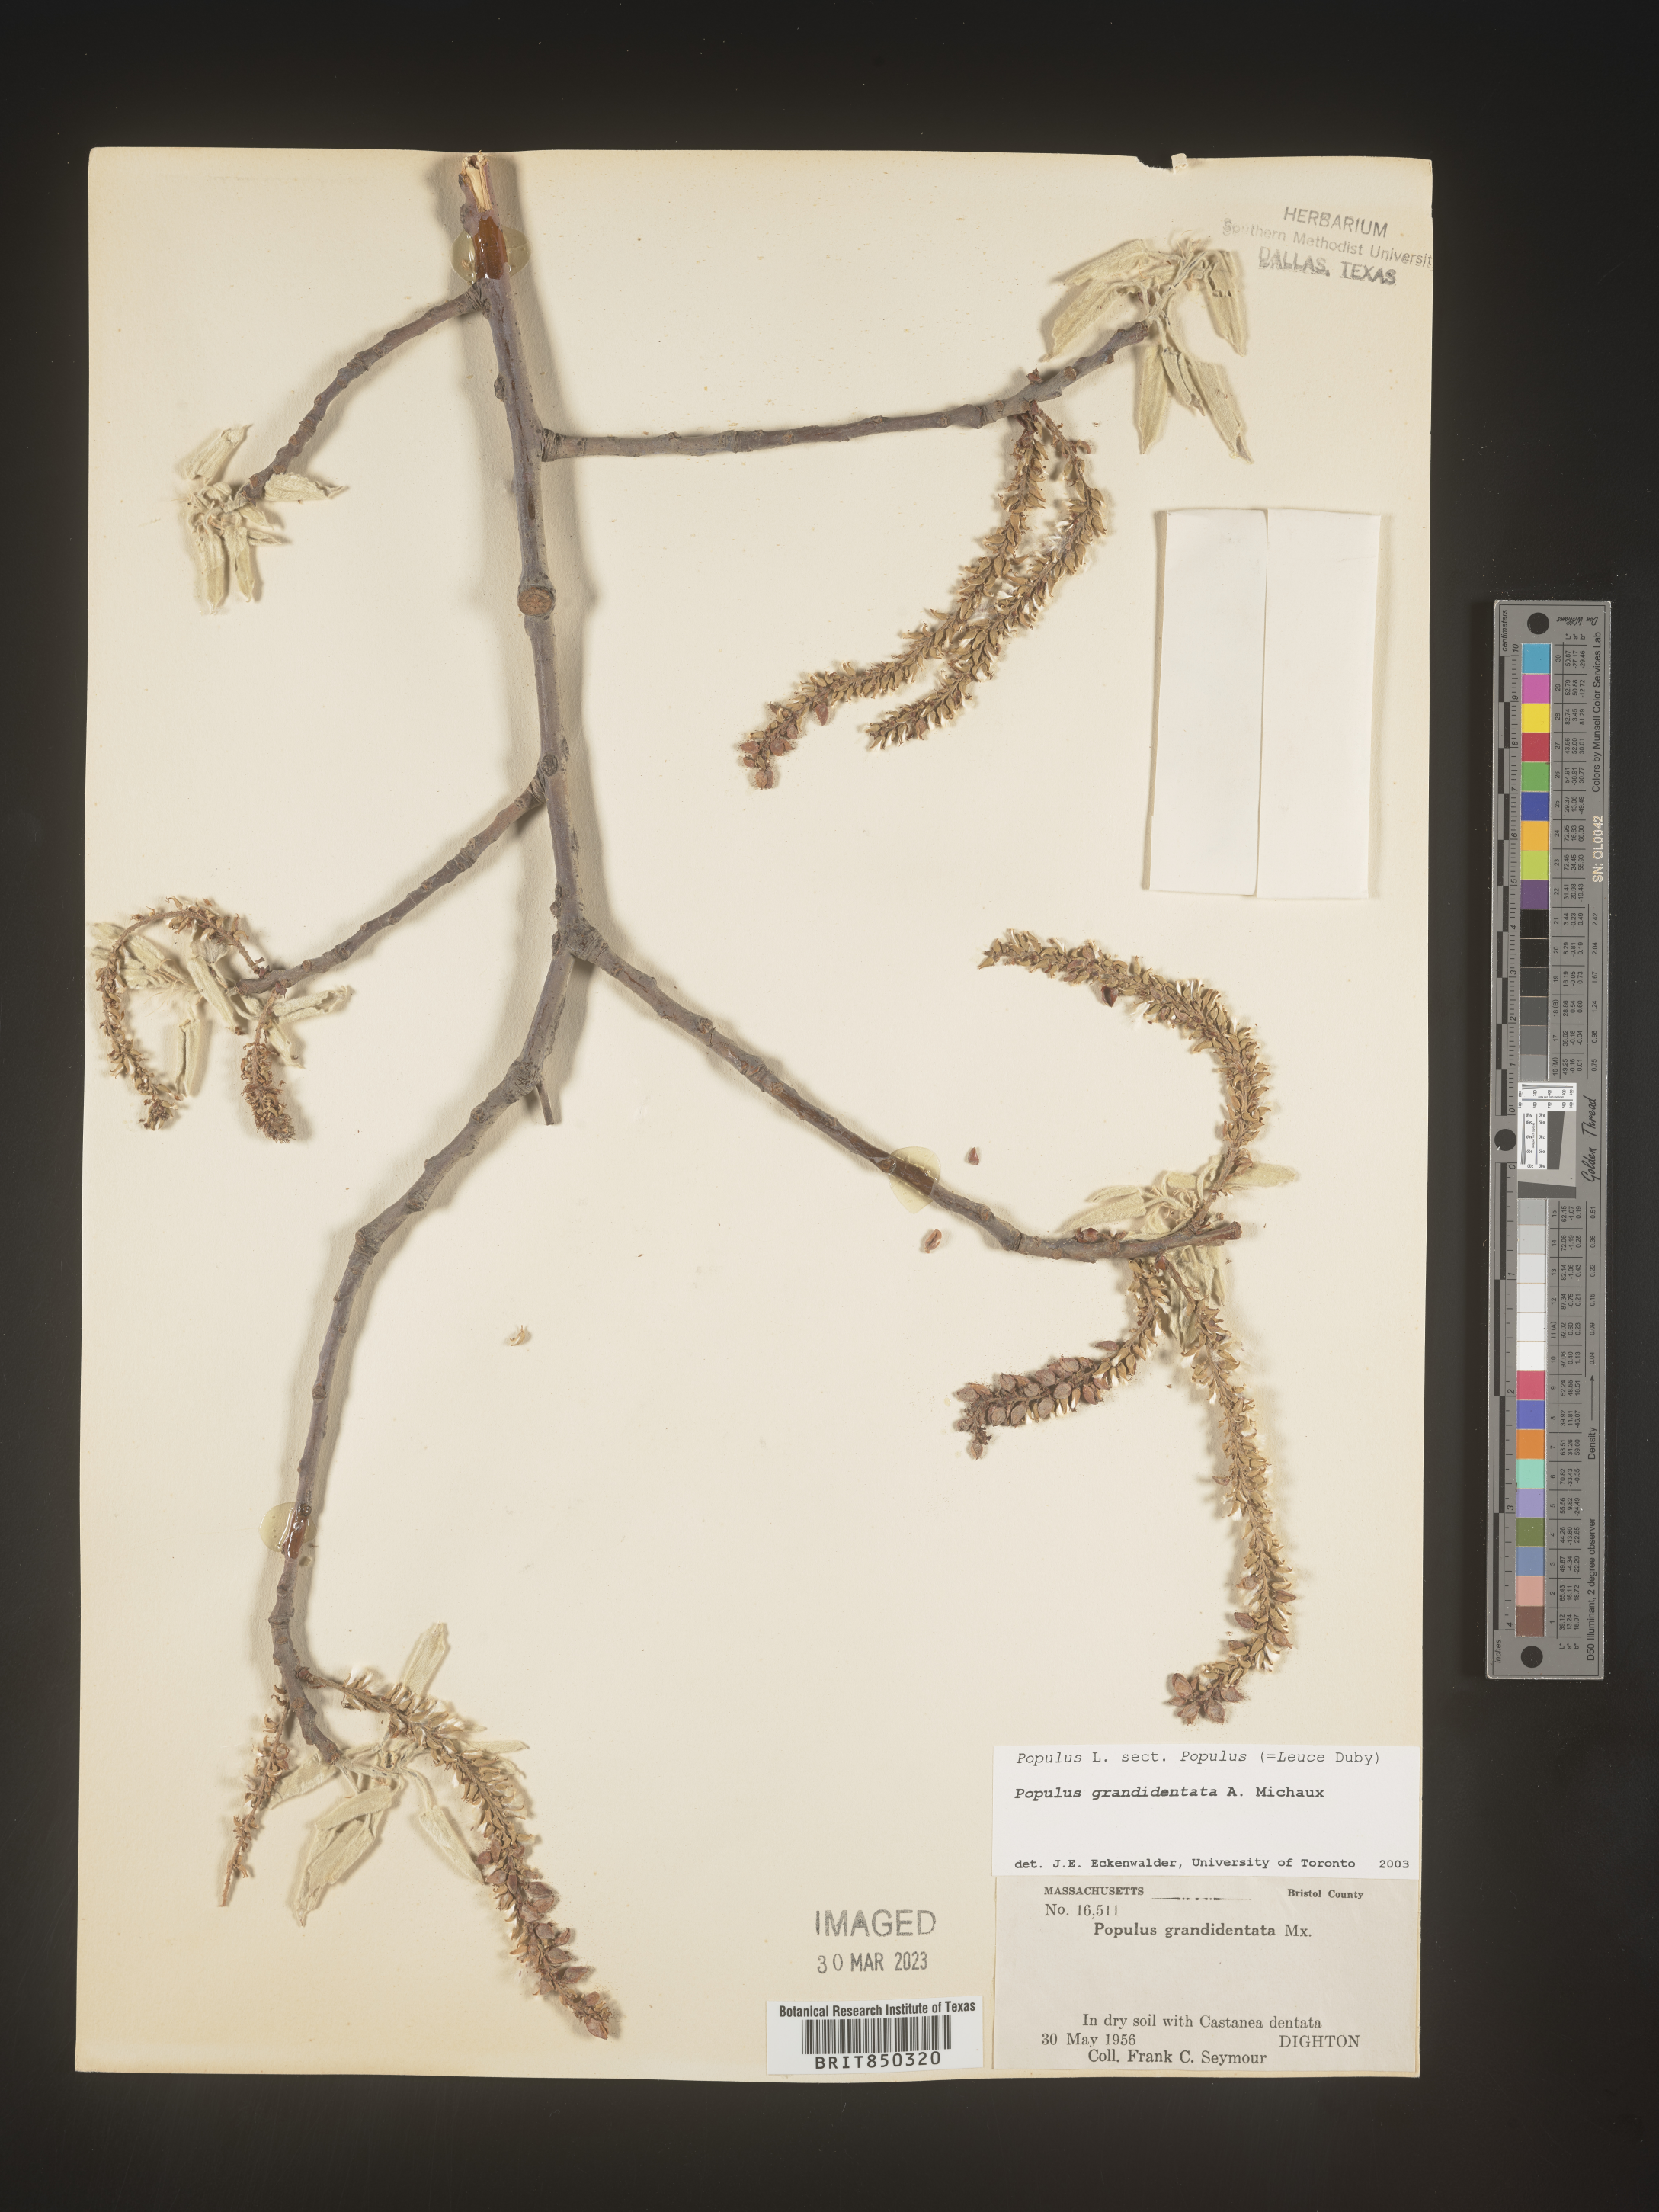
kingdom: Plantae
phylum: Tracheophyta
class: Magnoliopsida
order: Malpighiales
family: Salicaceae
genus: Populus
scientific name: Populus grandidentata
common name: Bigtooth aspen
